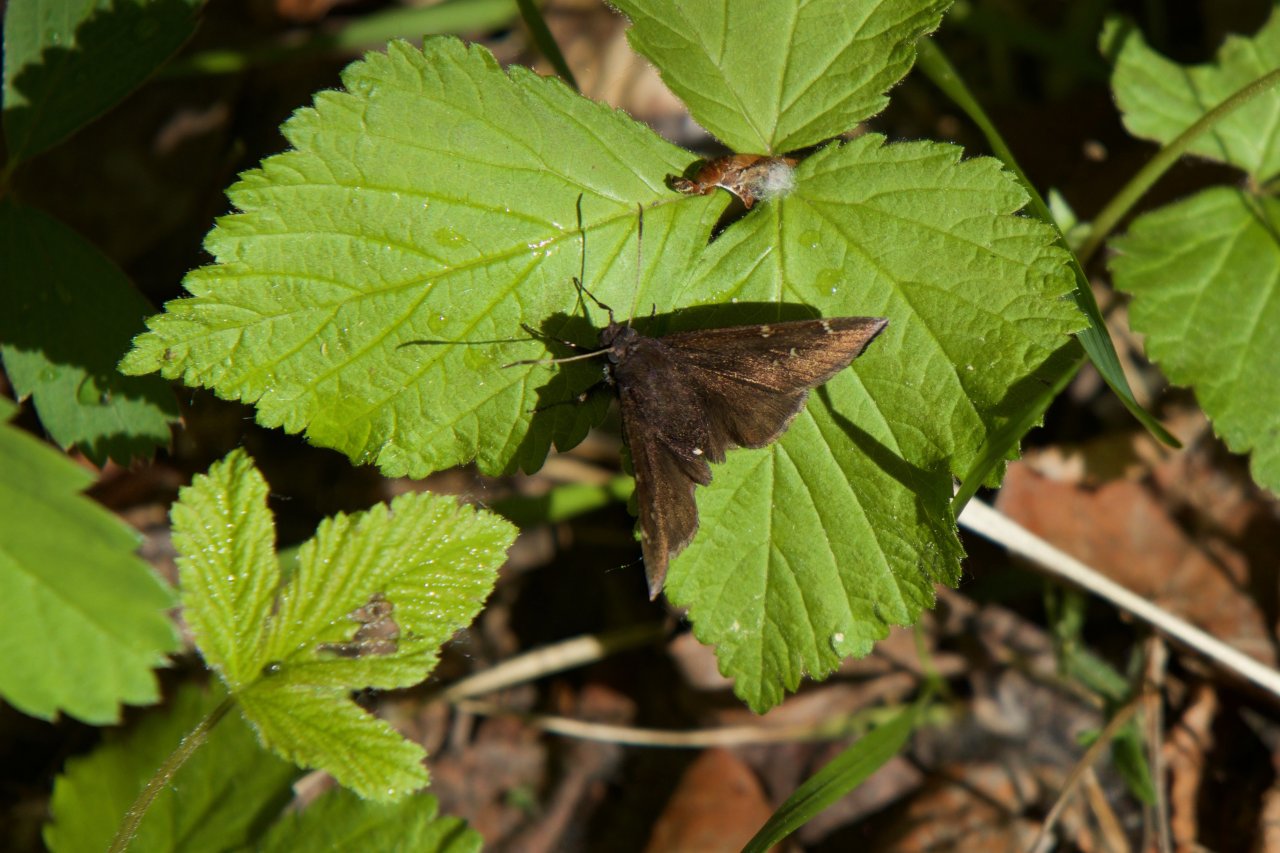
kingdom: Animalia
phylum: Arthropoda
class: Insecta
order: Lepidoptera
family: Hesperiidae
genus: Autochton
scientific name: Autochton
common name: Northern Cloudywing
